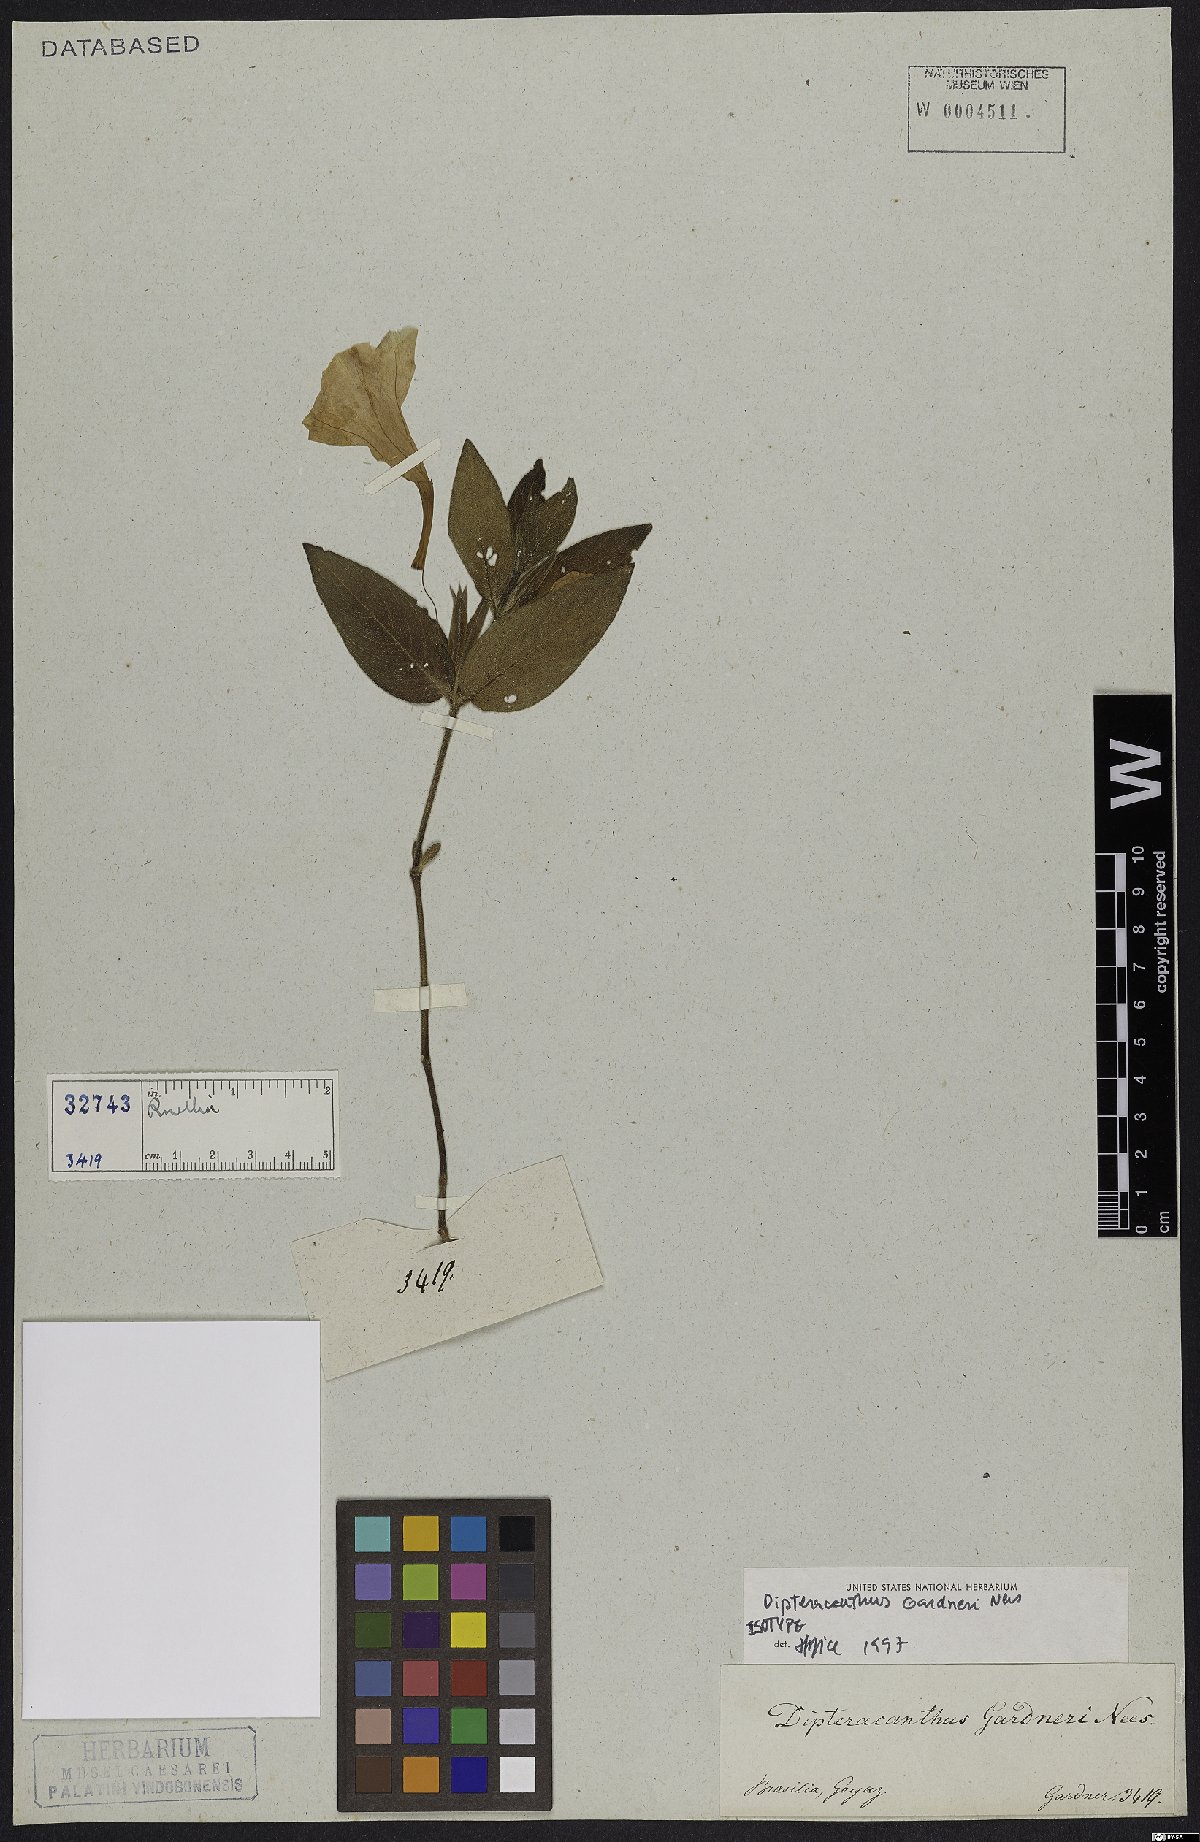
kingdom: Plantae
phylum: Tracheophyta
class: Magnoliopsida
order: Lamiales
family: Acanthaceae
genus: Ruellia
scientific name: Ruellia Dipteracanthus gardneri
